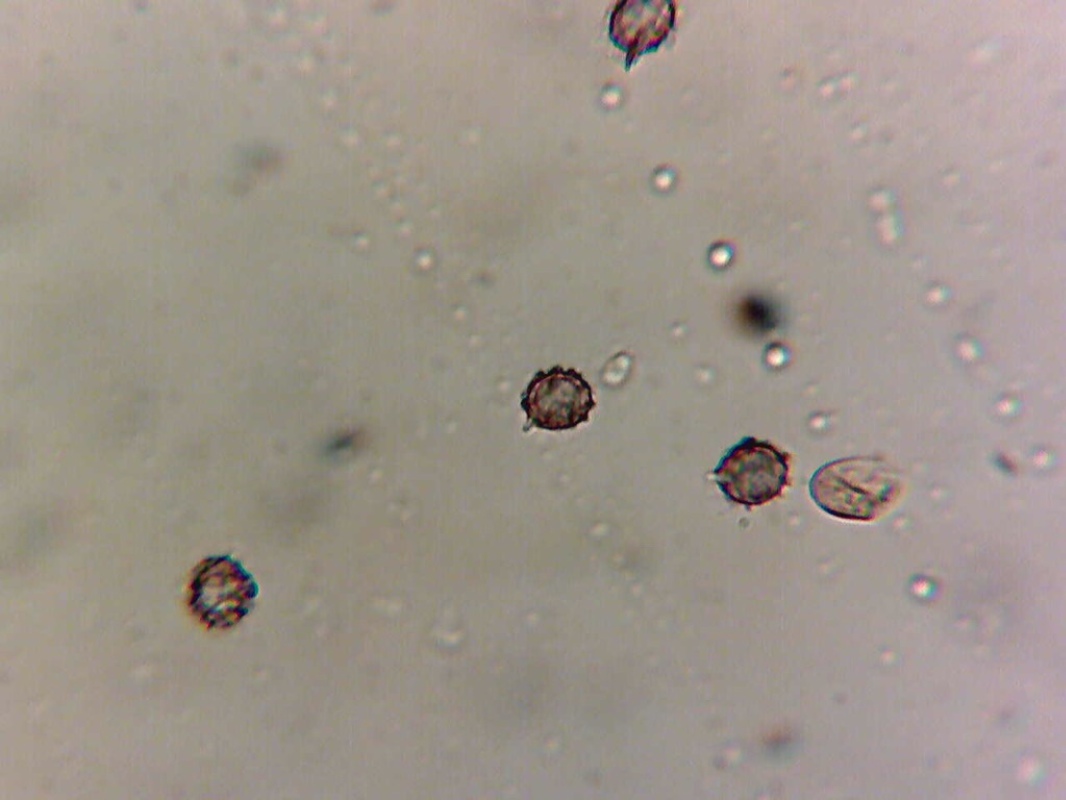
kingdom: Fungi
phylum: Basidiomycota
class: Agaricomycetes
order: Russulales
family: Russulaceae
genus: Russula
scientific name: Russula odorata
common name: duft-skørhat
